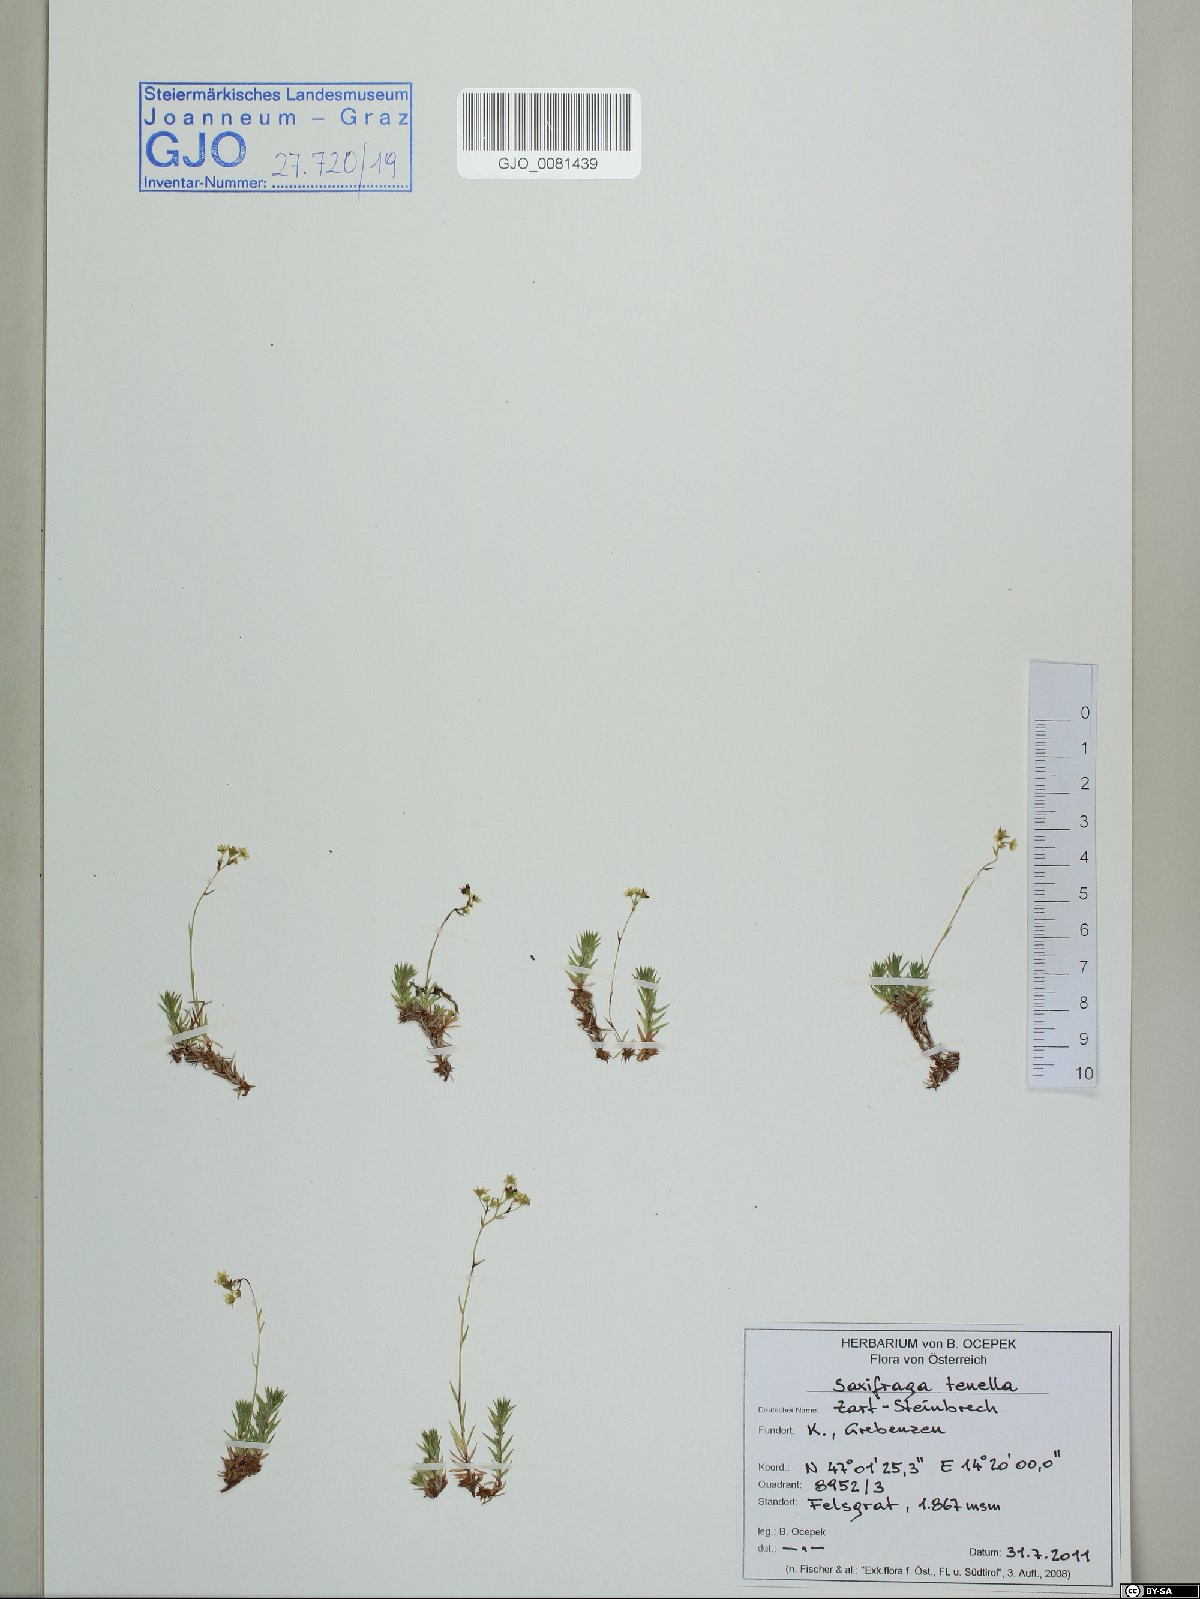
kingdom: Plantae
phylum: Tracheophyta
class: Magnoliopsida
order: Saxifragales
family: Saxifragaceae
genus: Saxifraga
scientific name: Saxifraga tenella
